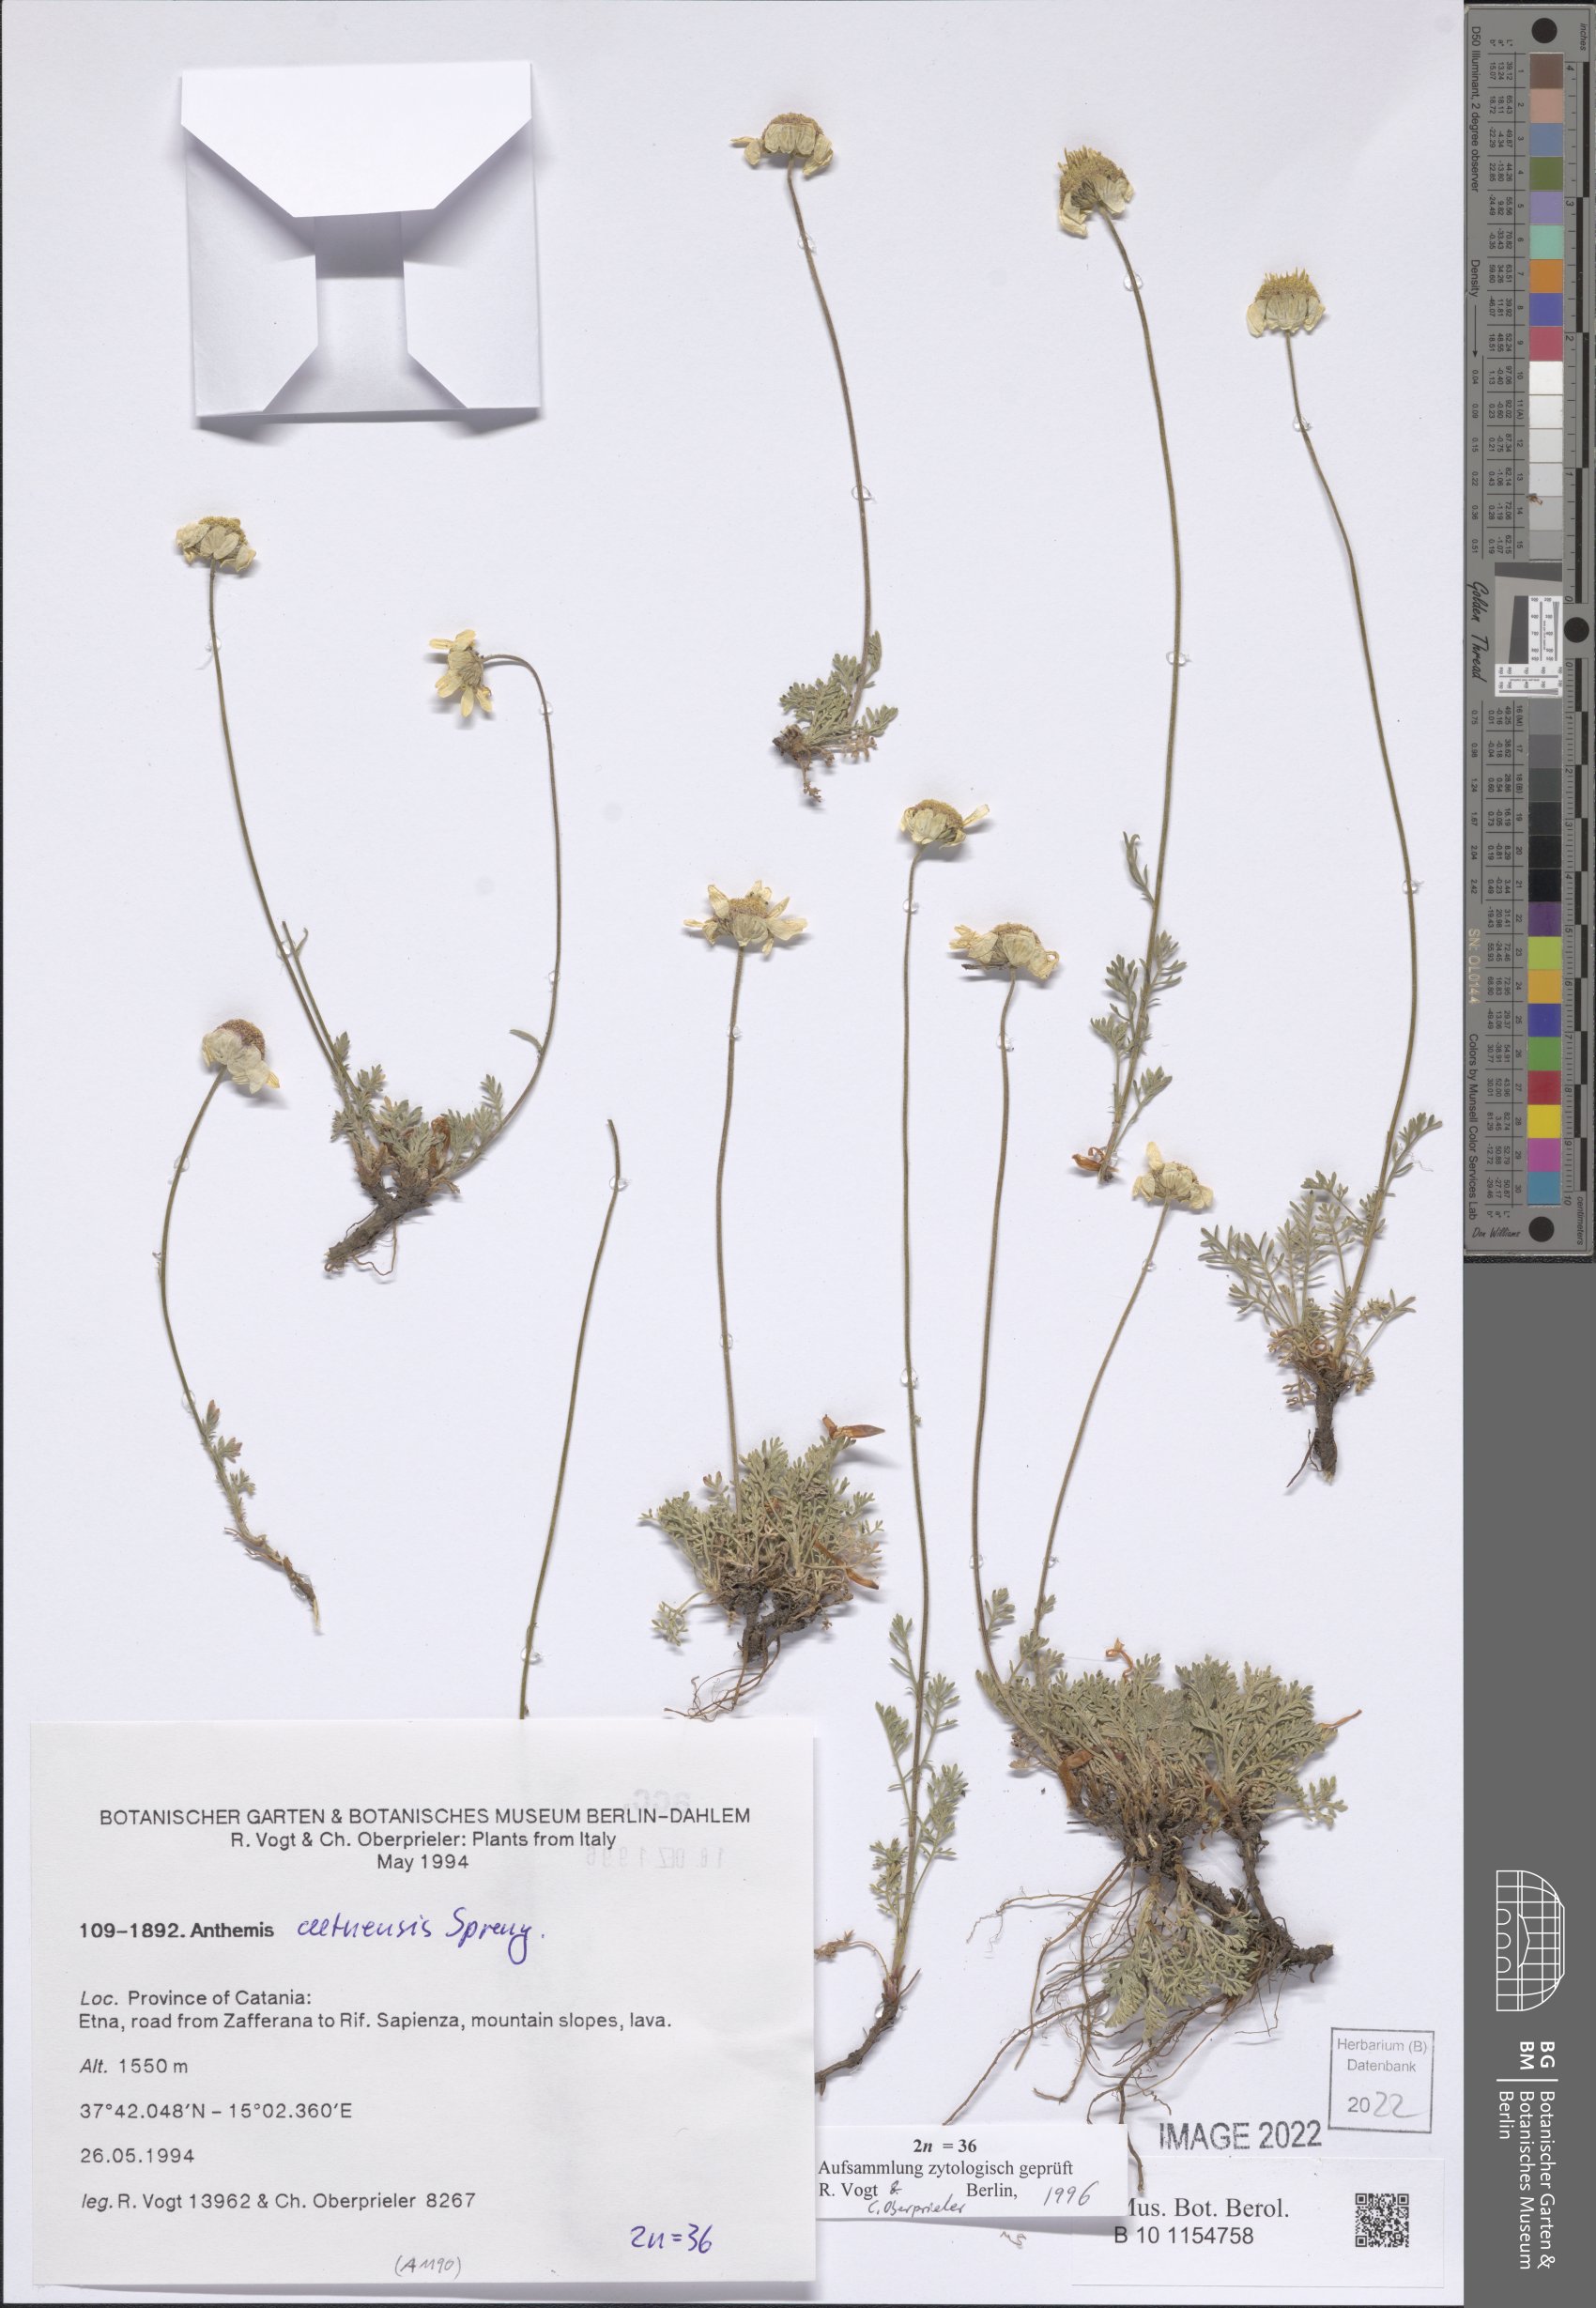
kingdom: Plantae
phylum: Tracheophyta
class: Magnoliopsida
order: Asterales
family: Asteraceae
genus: Anthemis
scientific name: Anthemis aetnensis
